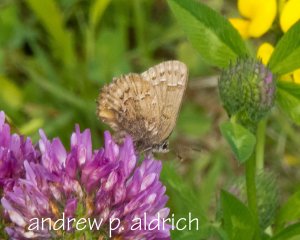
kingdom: Animalia
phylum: Arthropoda
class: Insecta
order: Lepidoptera
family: Lycaenidae
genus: Incisalia
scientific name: Incisalia niphon
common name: Eastern Pine Elfin
